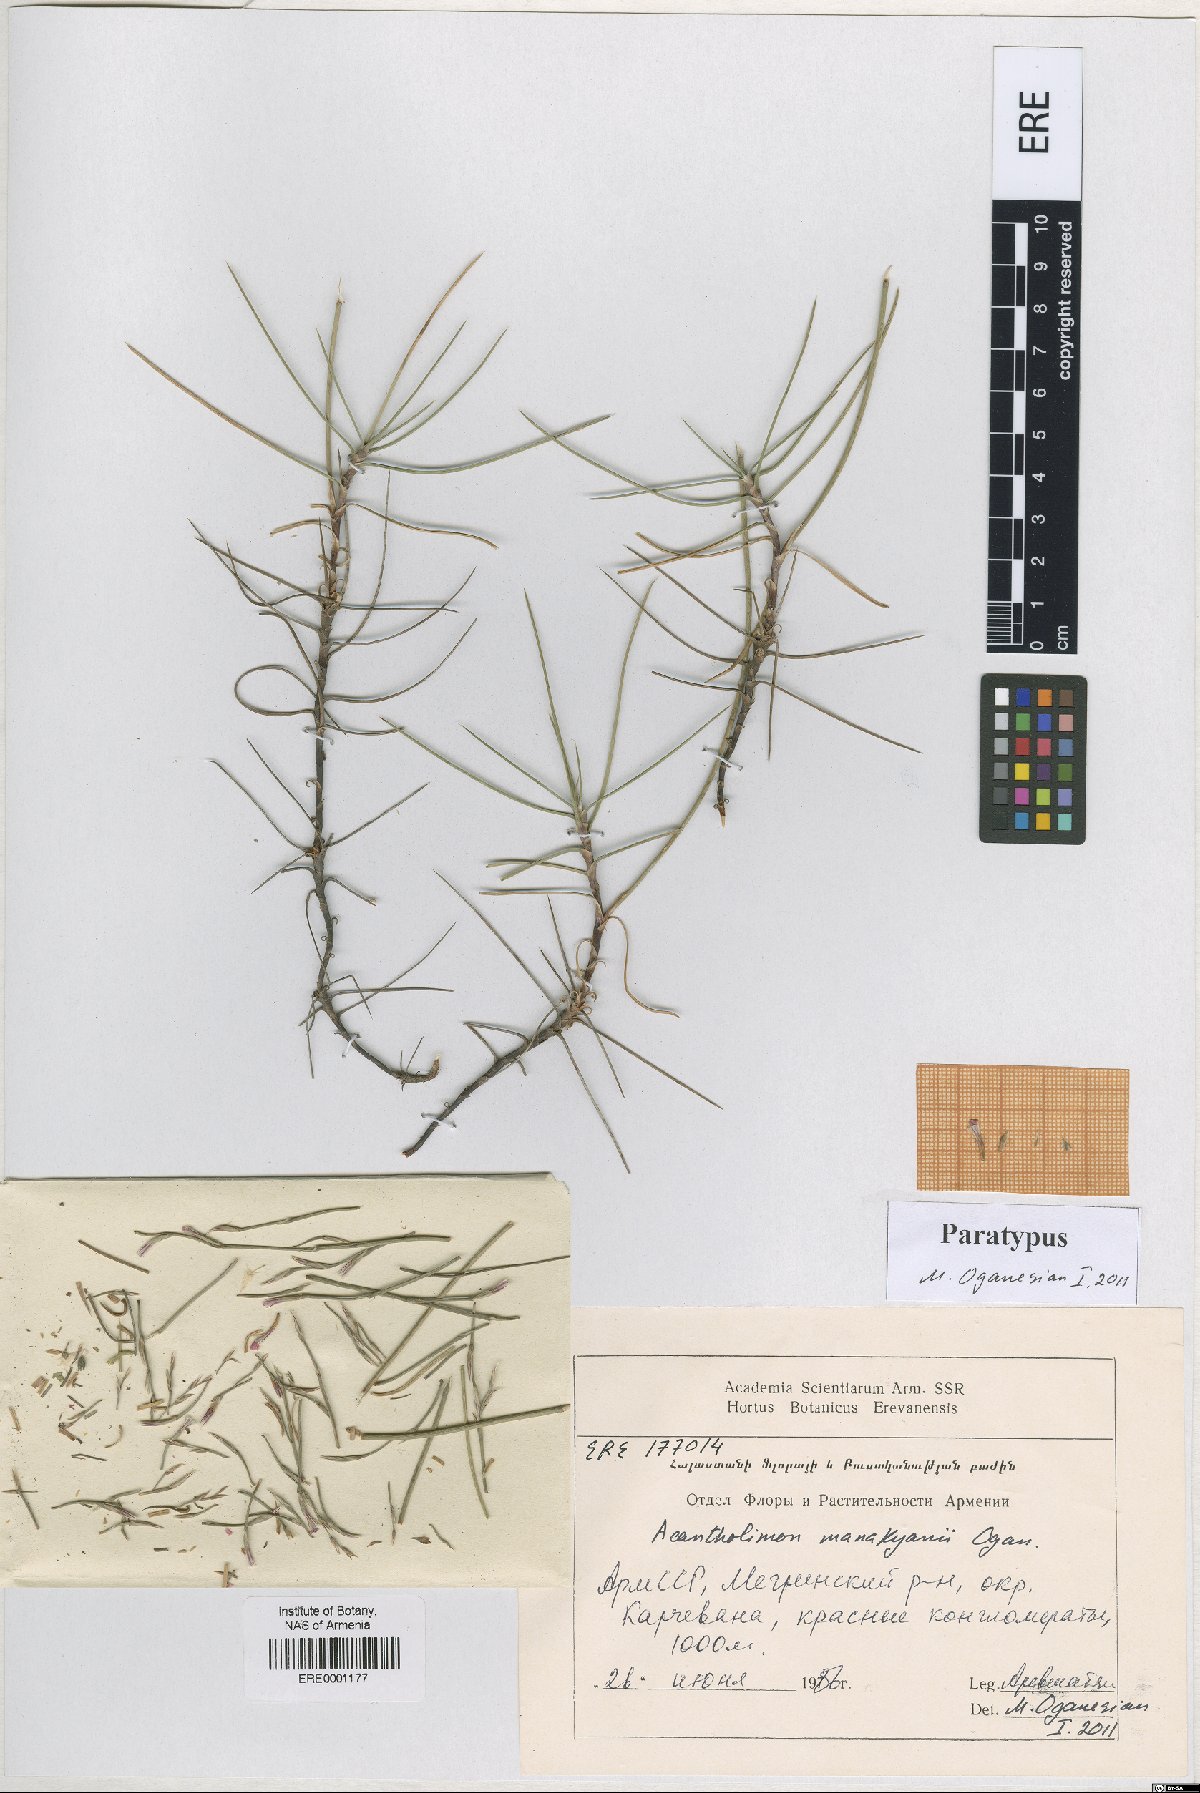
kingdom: Plantae
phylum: Tracheophyta
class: Magnoliopsida
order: Caryophyllales
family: Plumbaginaceae
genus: Acantholimon
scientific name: Acantholimon manakyanii
